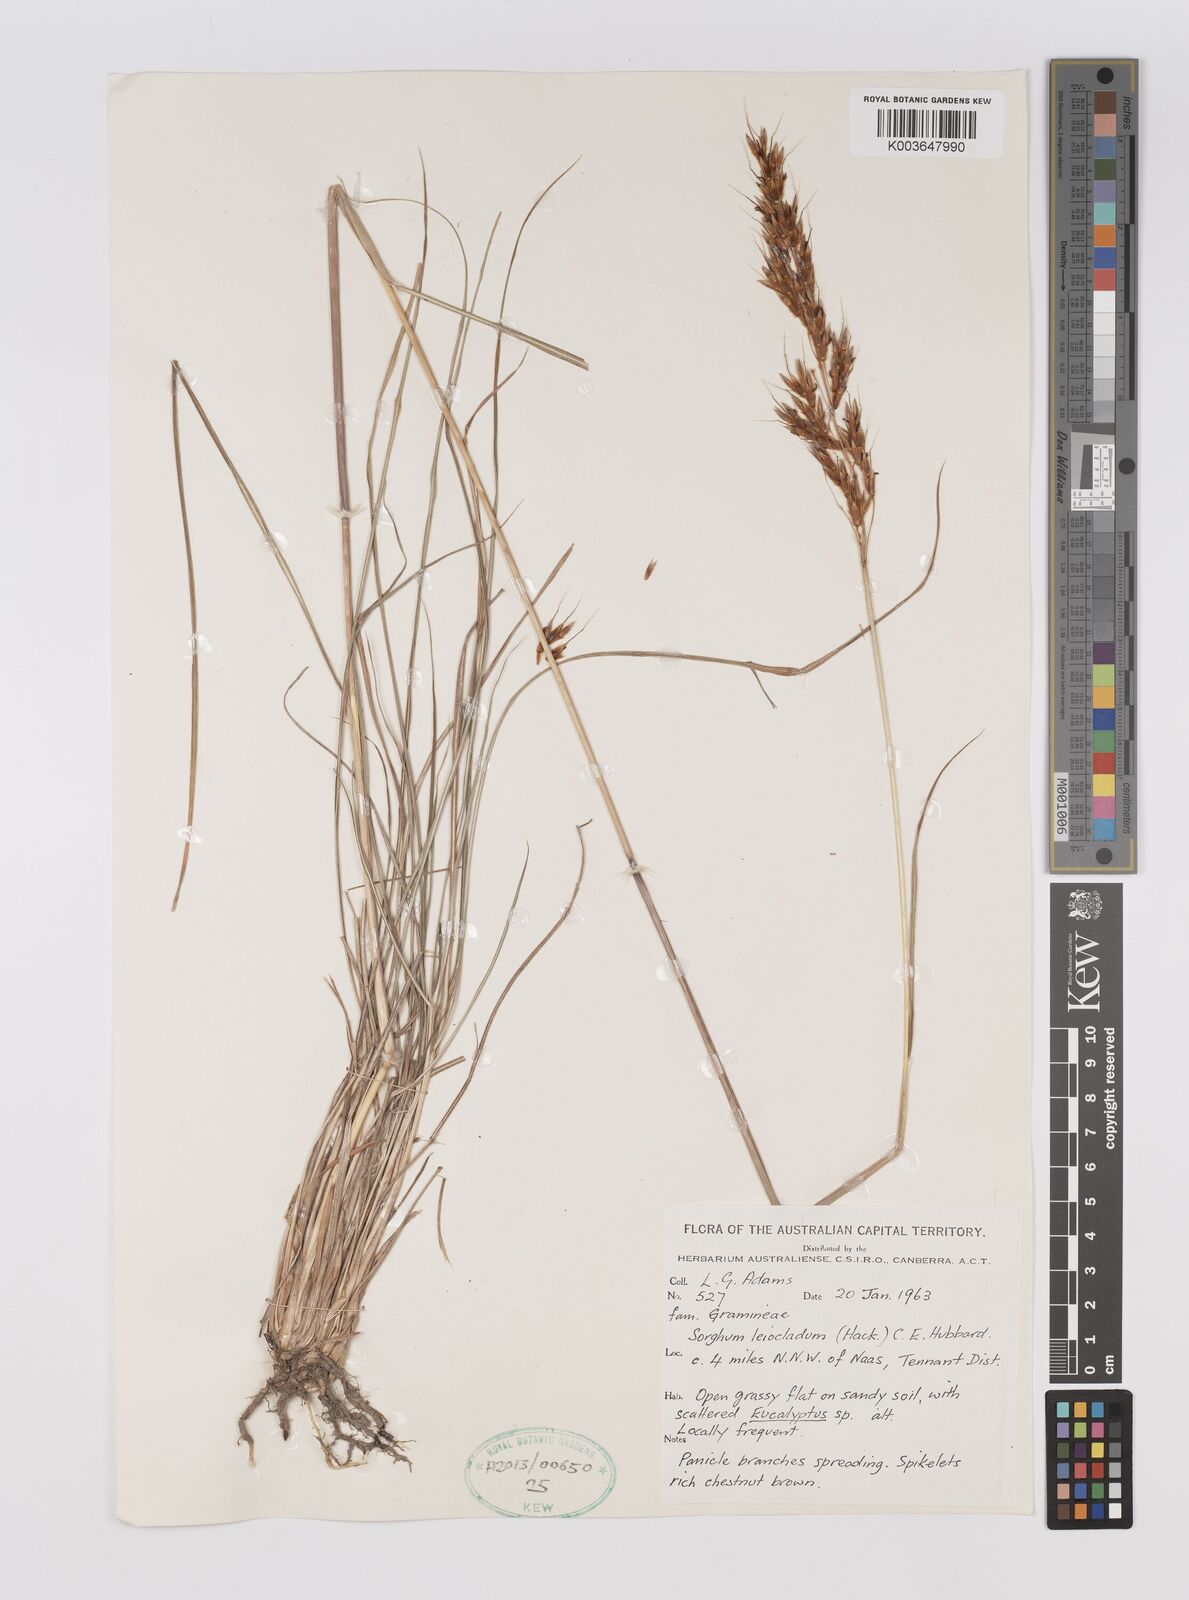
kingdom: Plantae
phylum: Tracheophyta
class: Liliopsida
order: Poales
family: Poaceae
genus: Sarga
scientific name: Sarga leioclada
